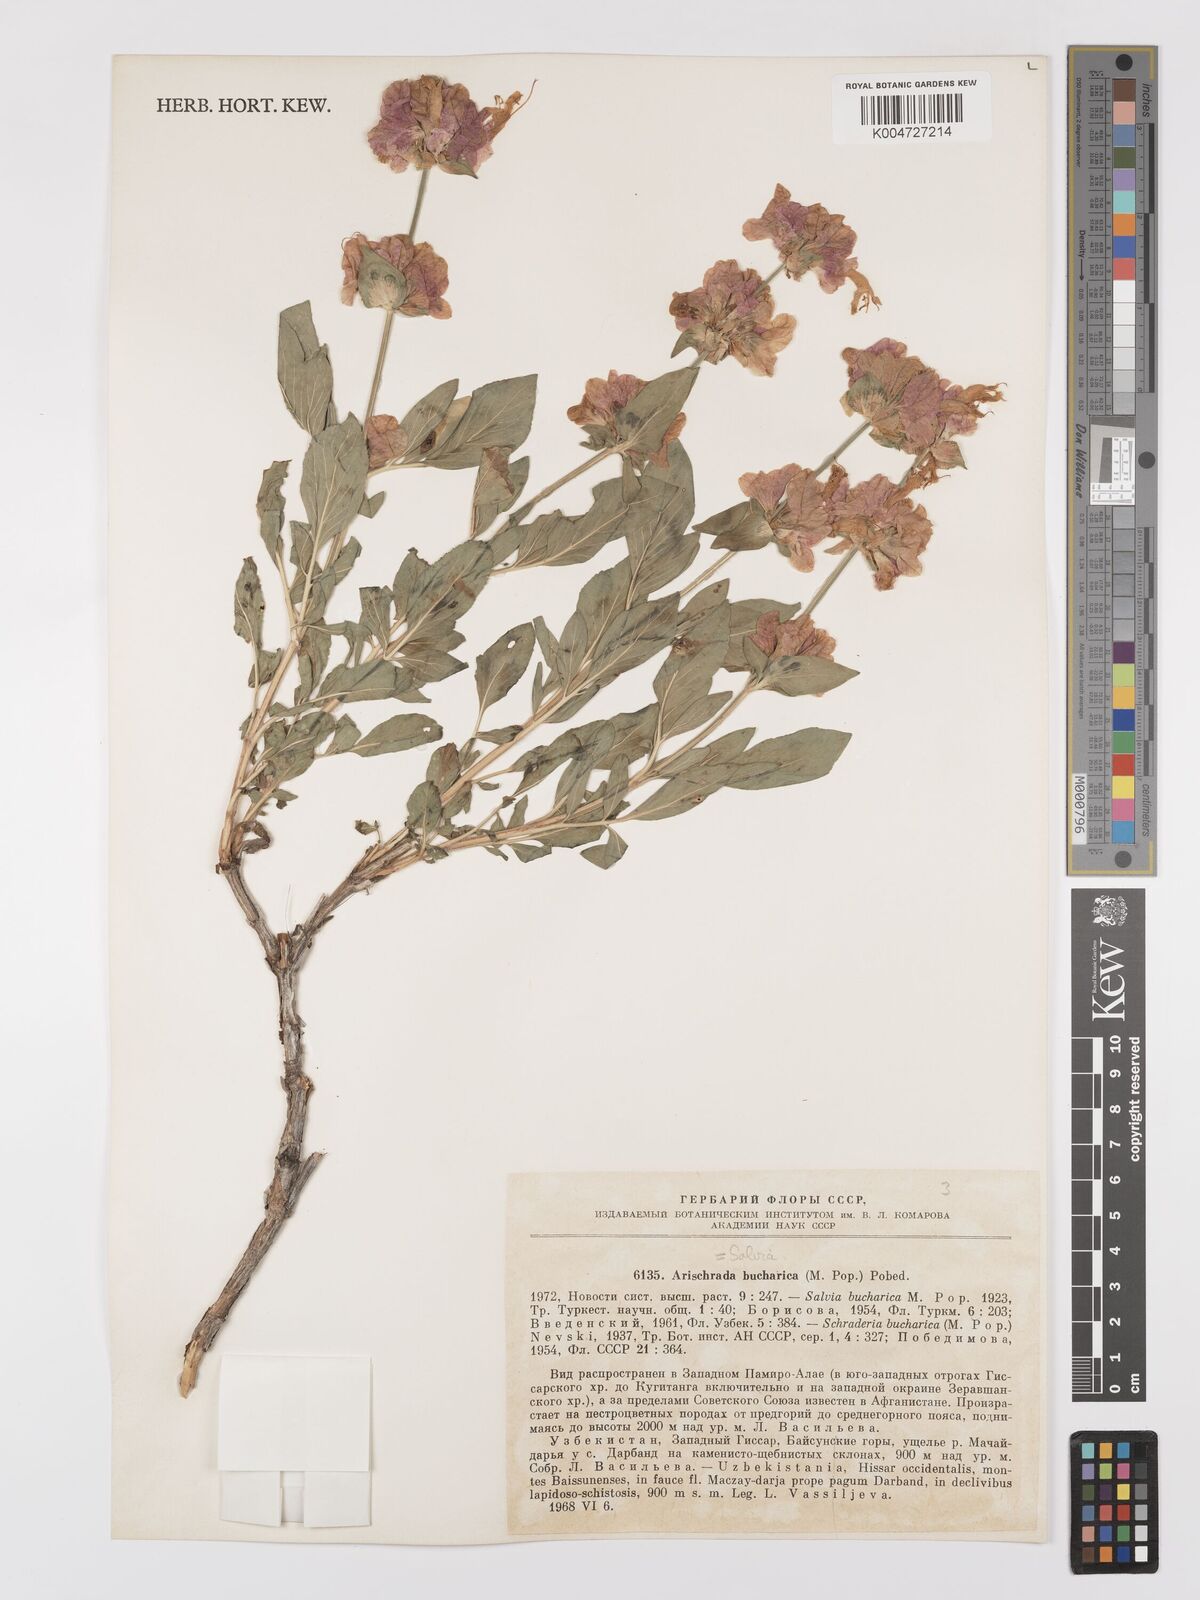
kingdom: Plantae
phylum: Tracheophyta
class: Magnoliopsida
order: Lamiales
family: Lamiaceae
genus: Salvia
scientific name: Salvia bucharica
